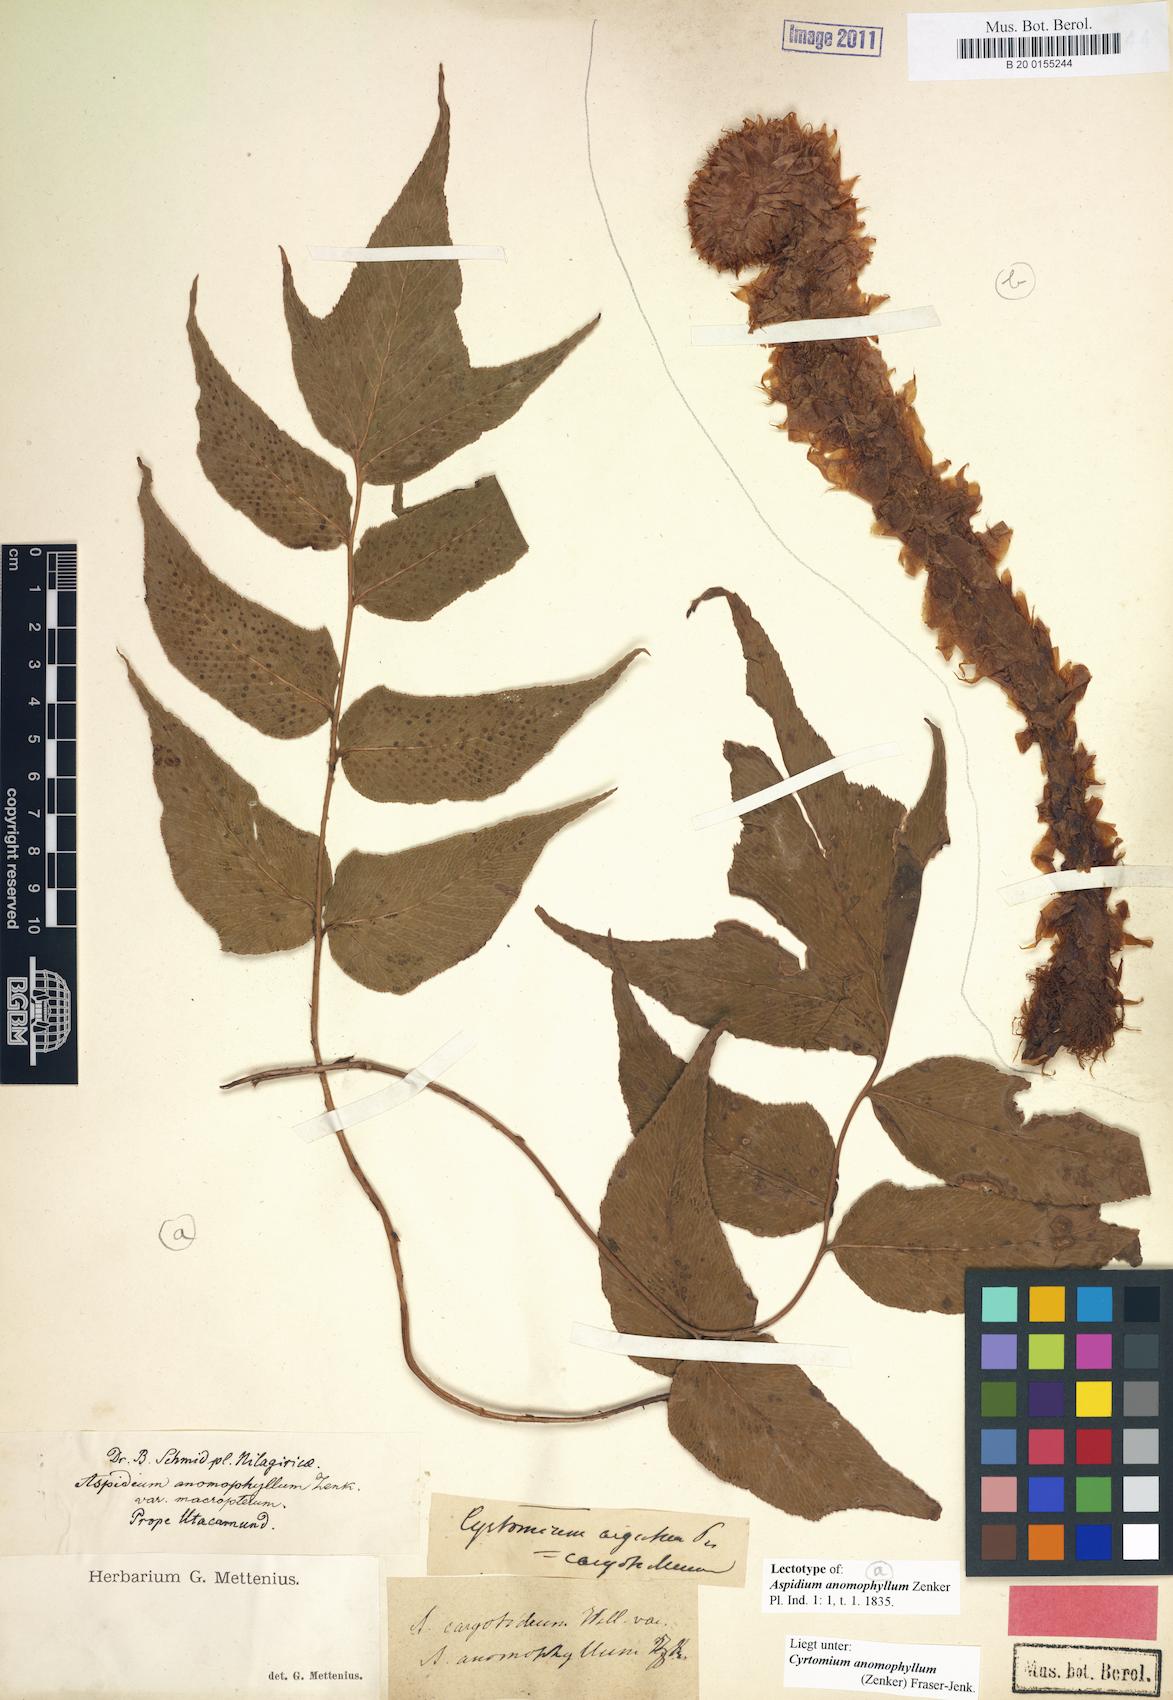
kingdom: Plantae
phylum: Tracheophyta
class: Polypodiopsida
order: Polypodiales
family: Dryopteridaceae
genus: Cyrtomium
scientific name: Cyrtomium anomophyllum
